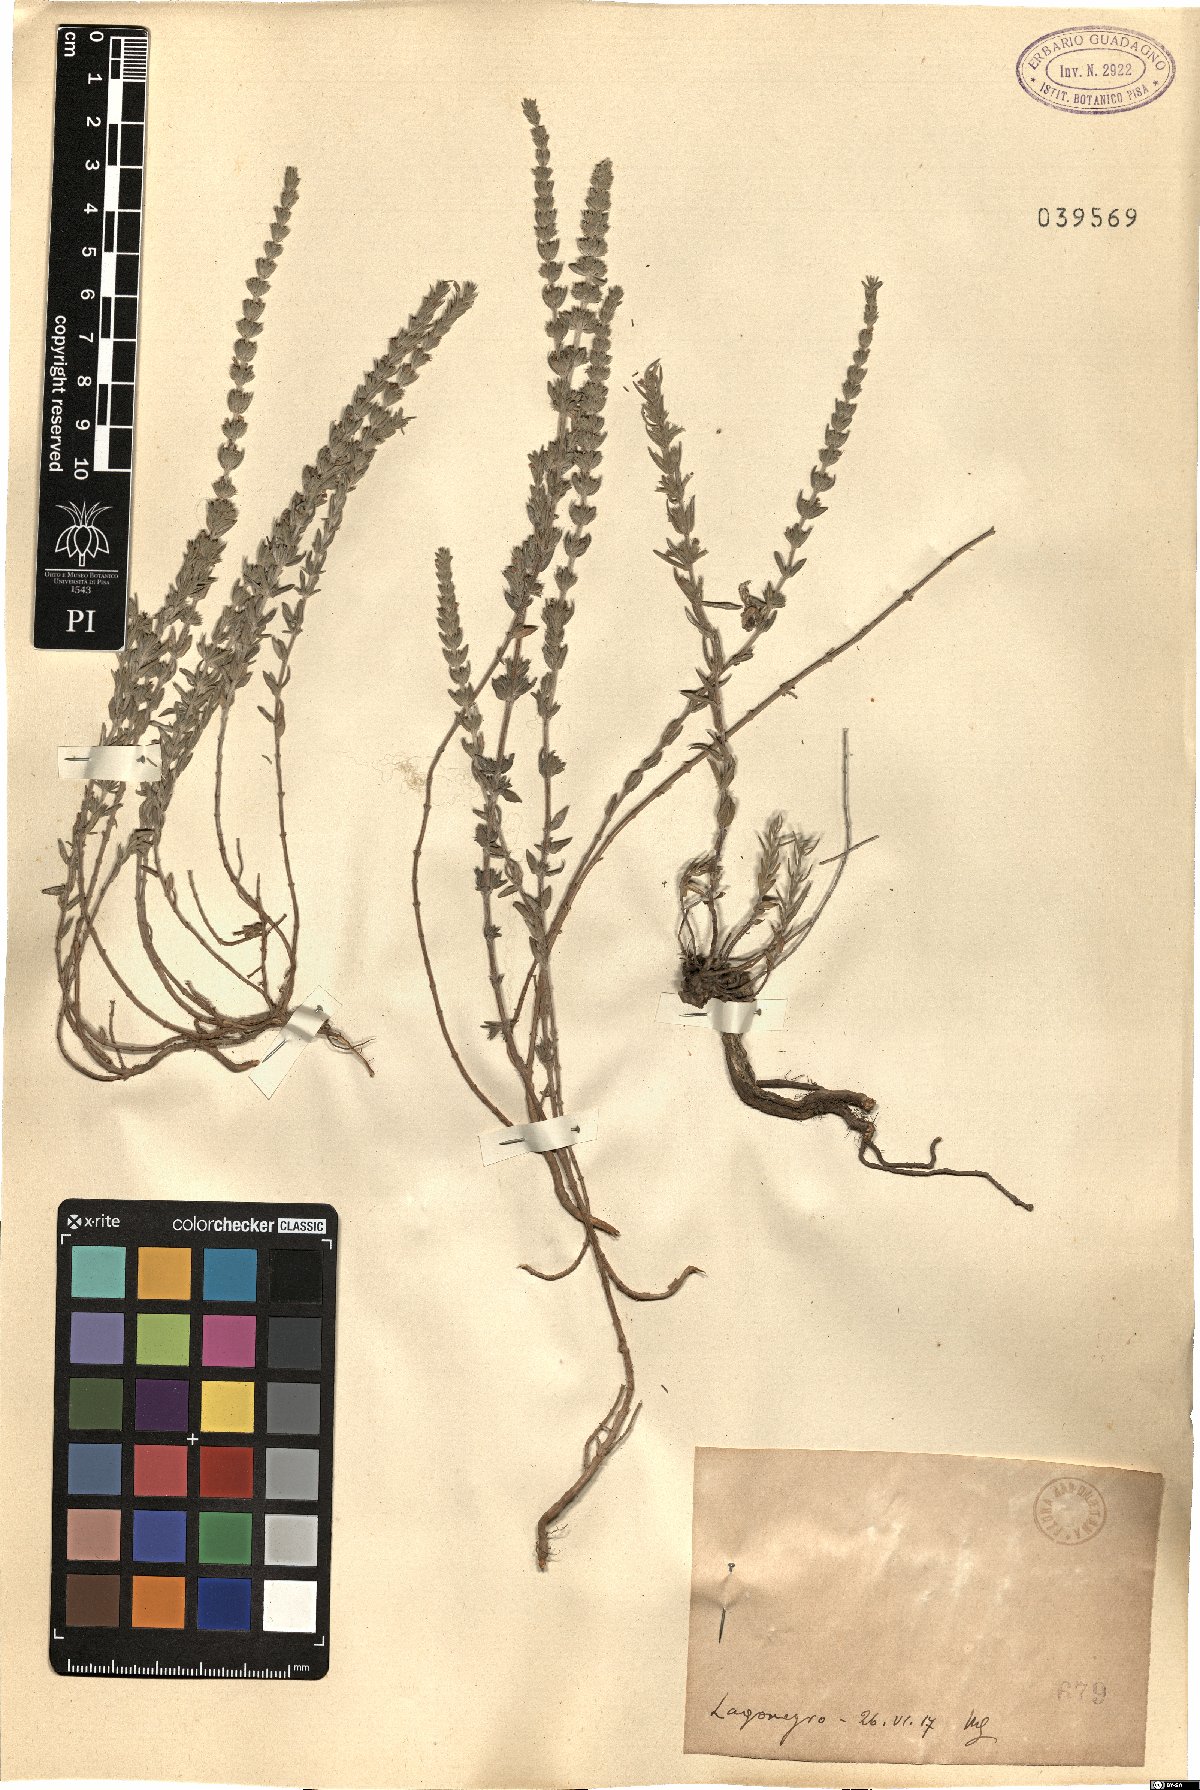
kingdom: Plantae
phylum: Tracheophyta
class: Magnoliopsida
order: Lamiales
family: Lamiaceae
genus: Micromeria
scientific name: Micromeria
